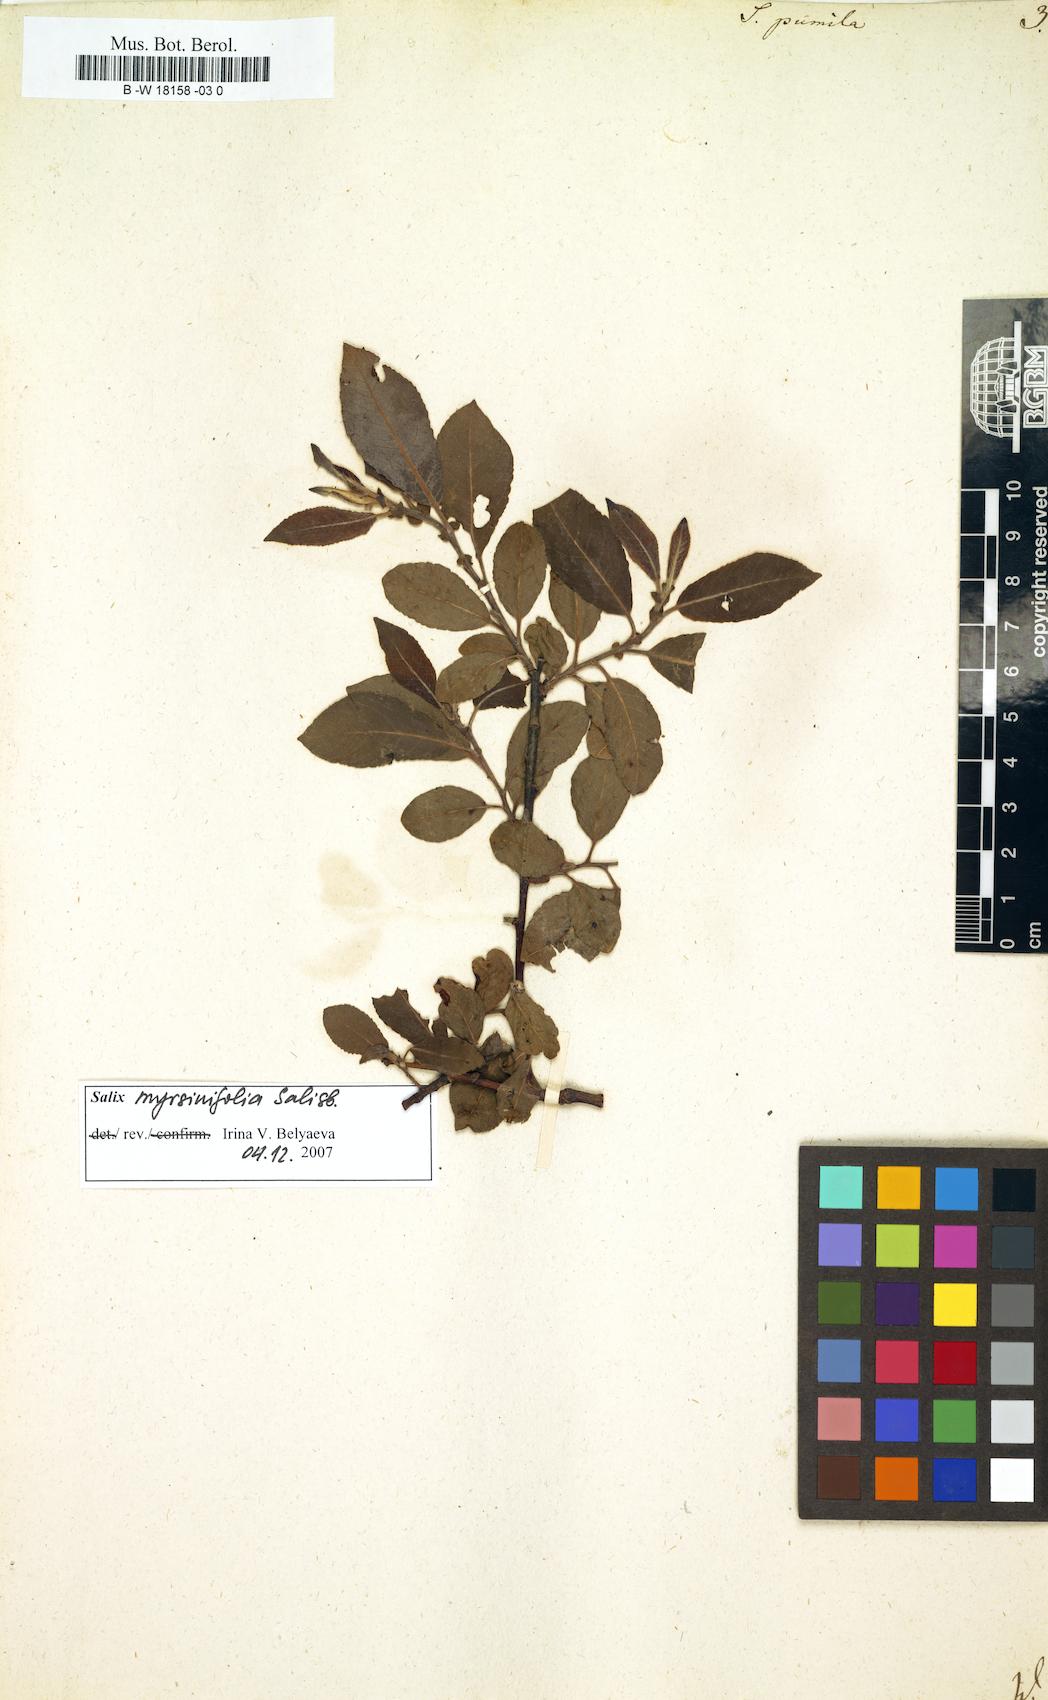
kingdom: Plantae
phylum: Tracheophyta
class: Magnoliopsida
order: Malpighiales
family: Salicaceae
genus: Salix
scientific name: Salix herbacea
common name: Dwarf willow
